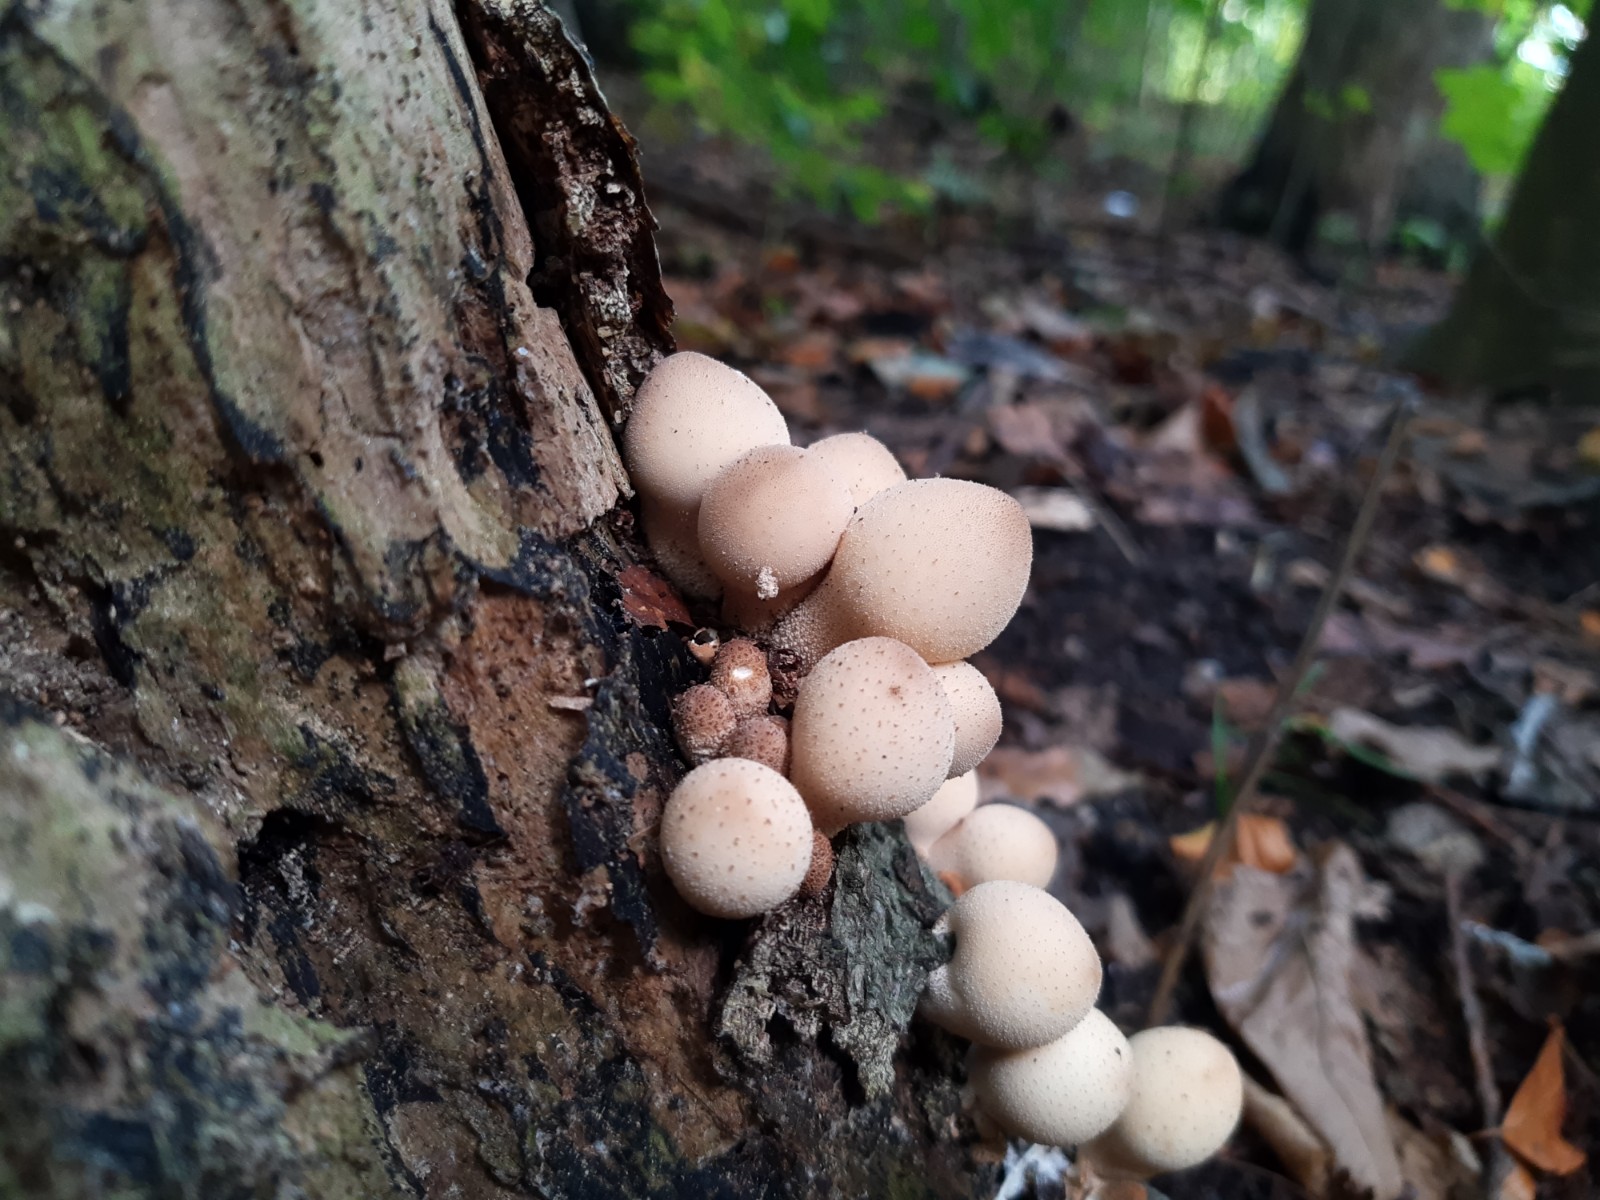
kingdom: Fungi
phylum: Basidiomycota
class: Agaricomycetes
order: Agaricales
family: Lycoperdaceae
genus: Apioperdon
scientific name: Apioperdon pyriforme
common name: pære-støvbold
